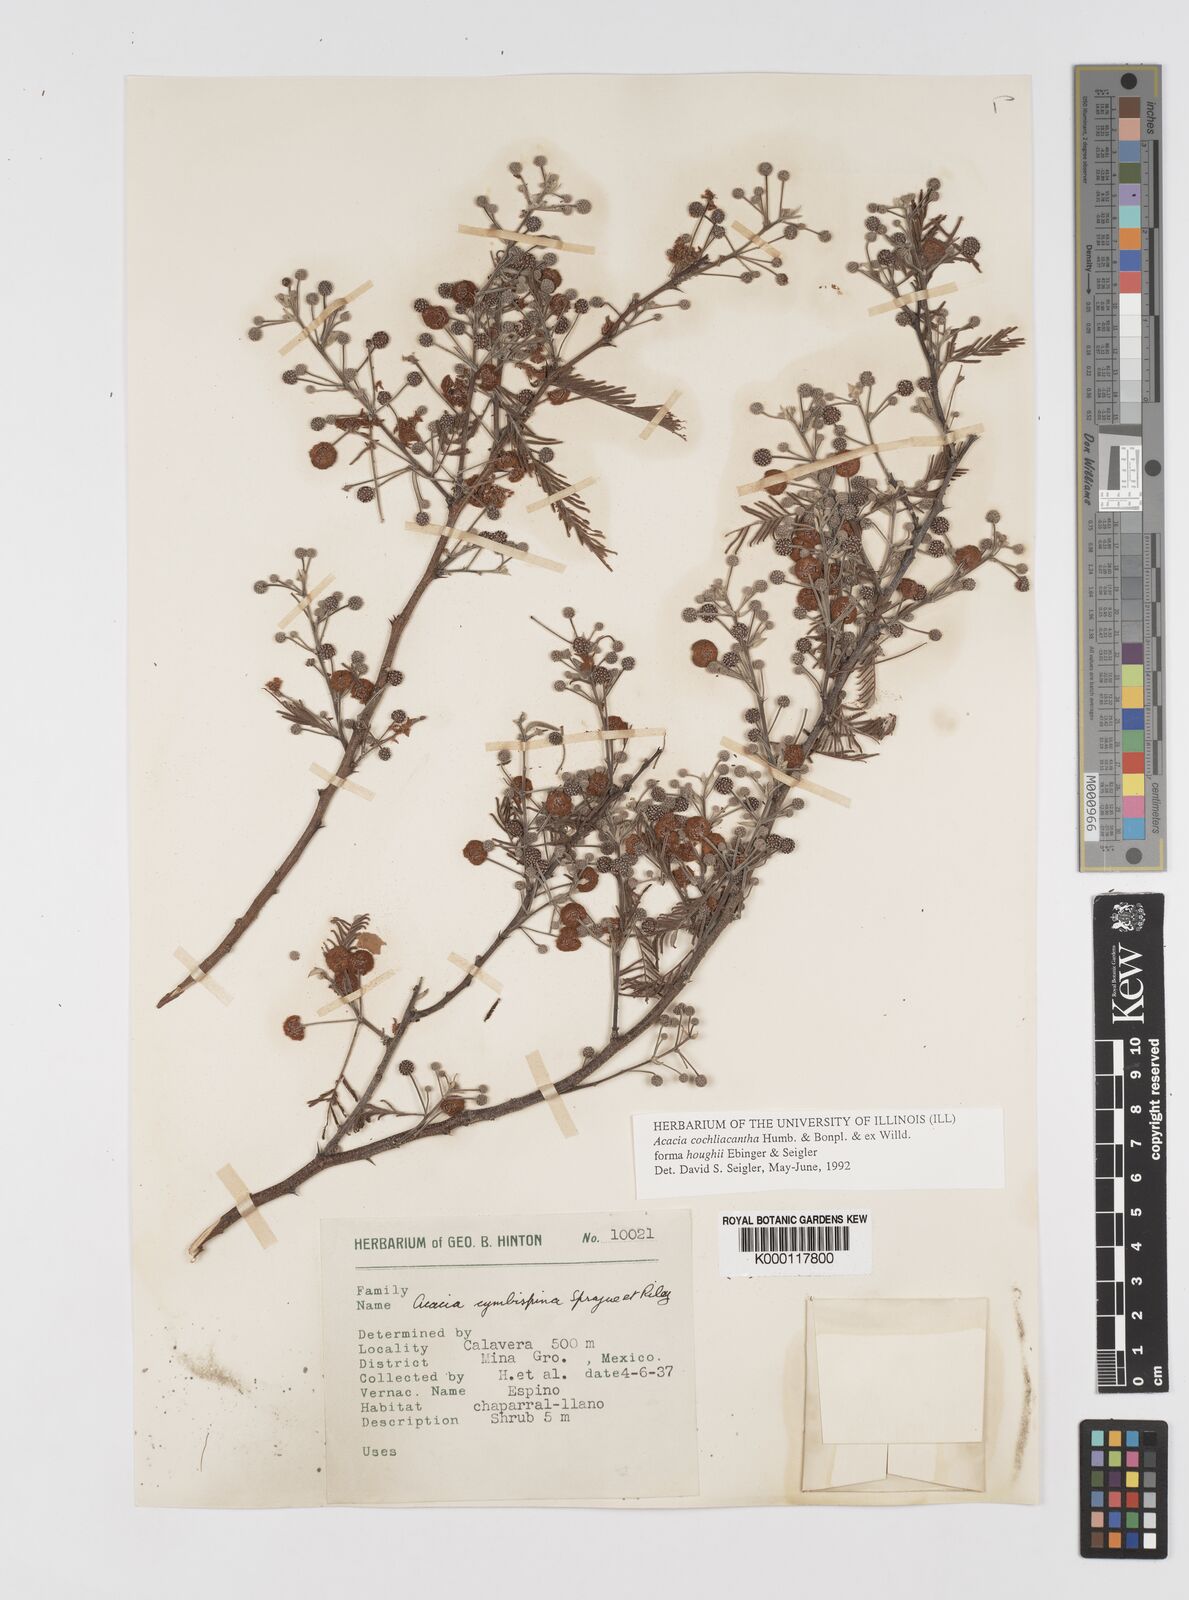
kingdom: Plantae
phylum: Tracheophyta
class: Magnoliopsida
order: Fabales
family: Fabaceae
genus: Vachellia
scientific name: Vachellia campeachiana
